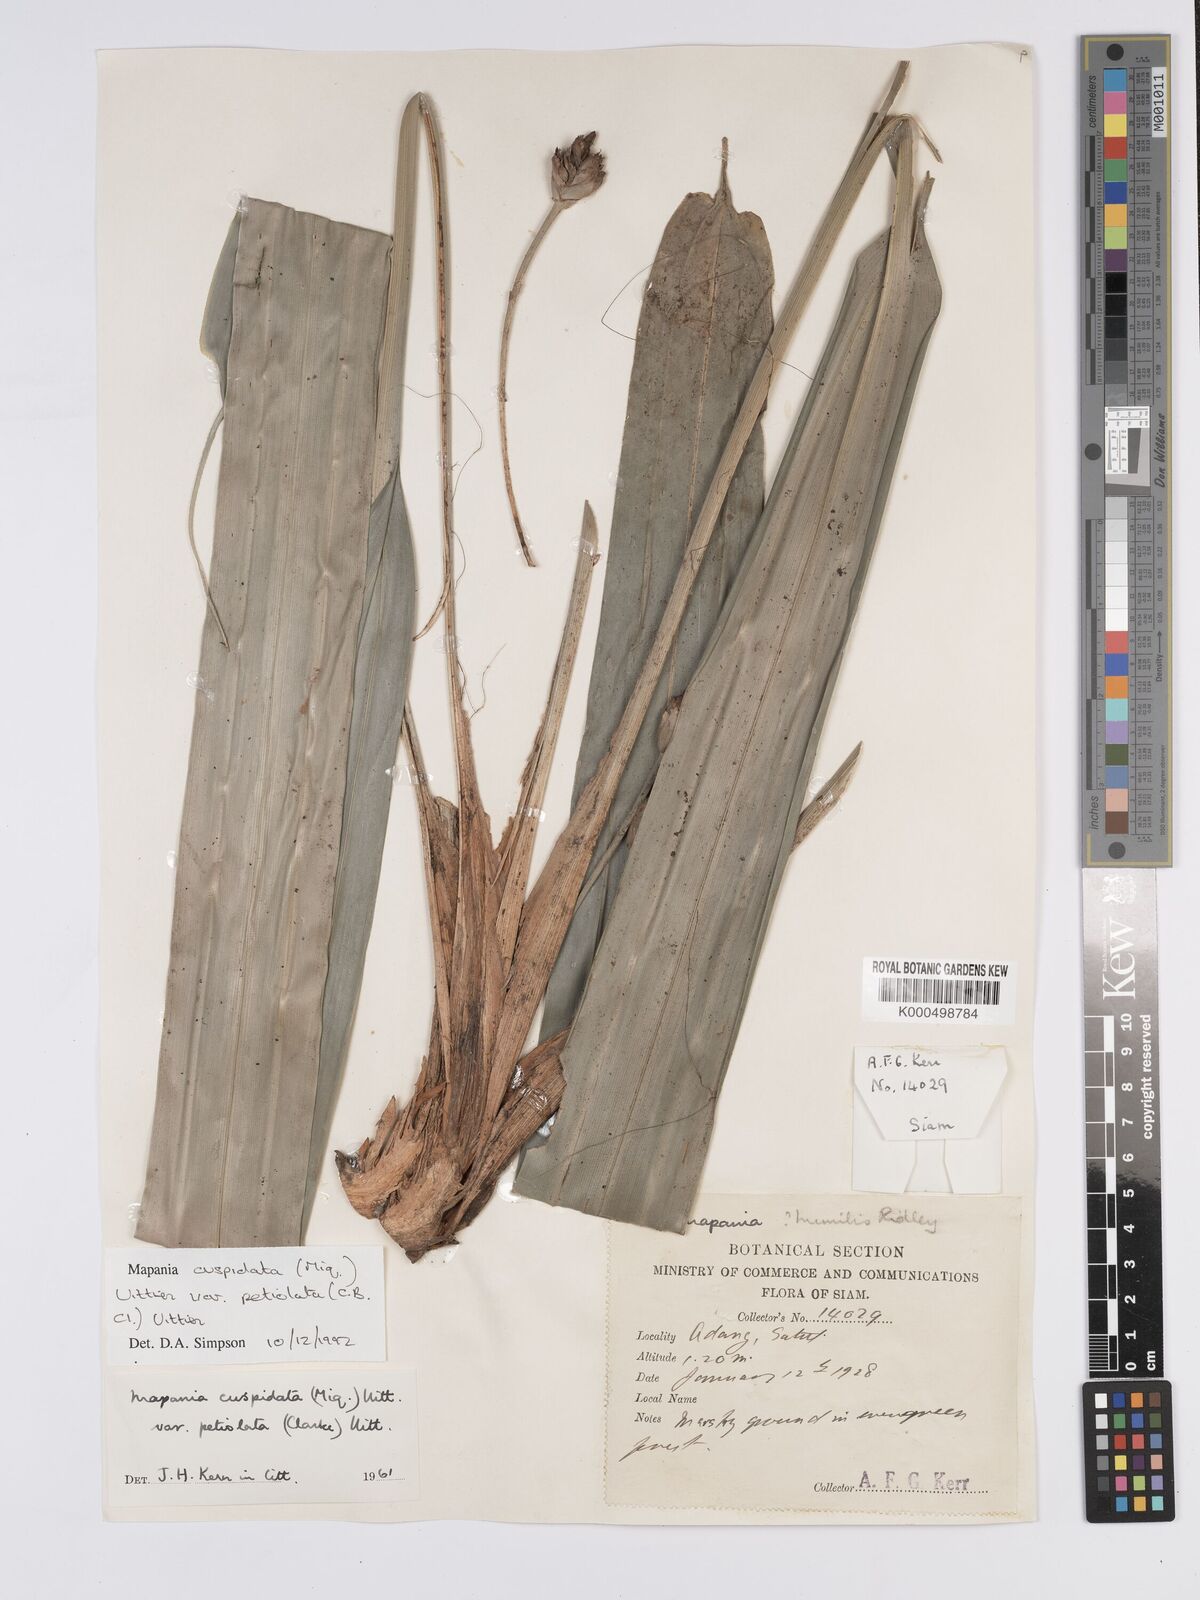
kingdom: Plantae
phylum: Tracheophyta
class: Liliopsida
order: Poales
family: Cyperaceae
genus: Mapania
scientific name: Mapania cuspidata
